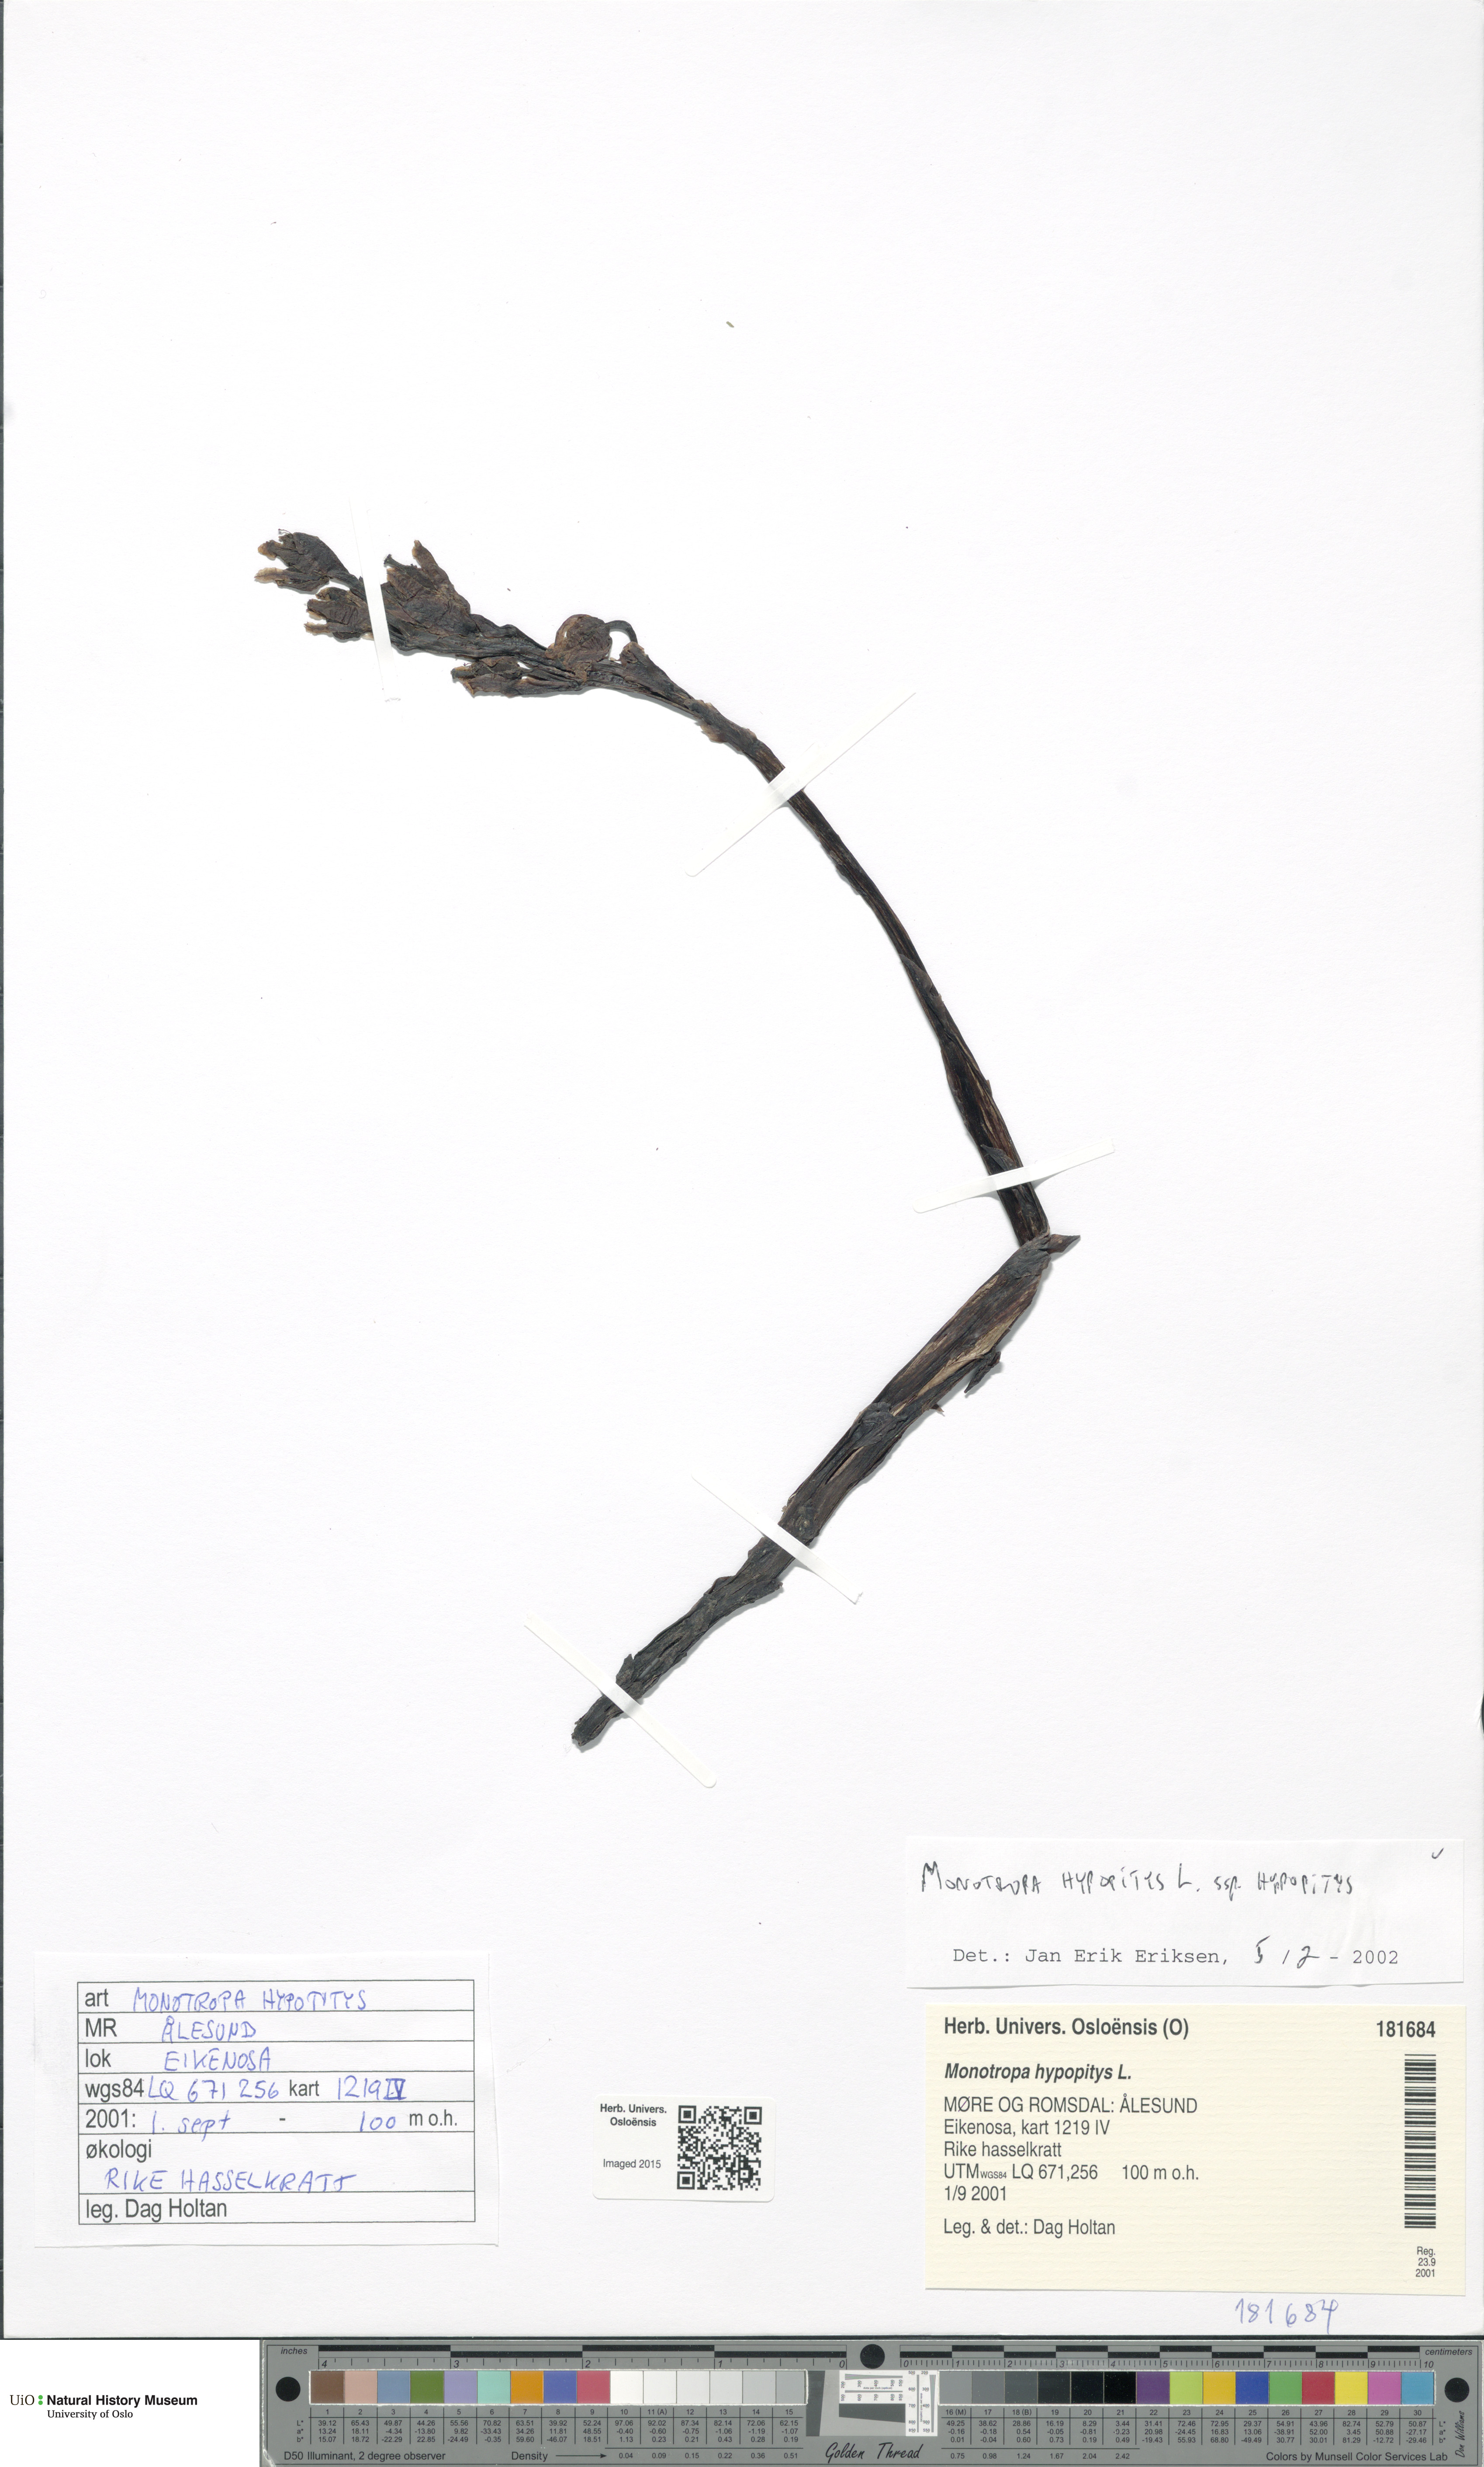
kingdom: Plantae
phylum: Tracheophyta
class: Magnoliopsida
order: Ericales
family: Ericaceae
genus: Hypopitys
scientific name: Hypopitys monotropa
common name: Yellow bird's-nest
